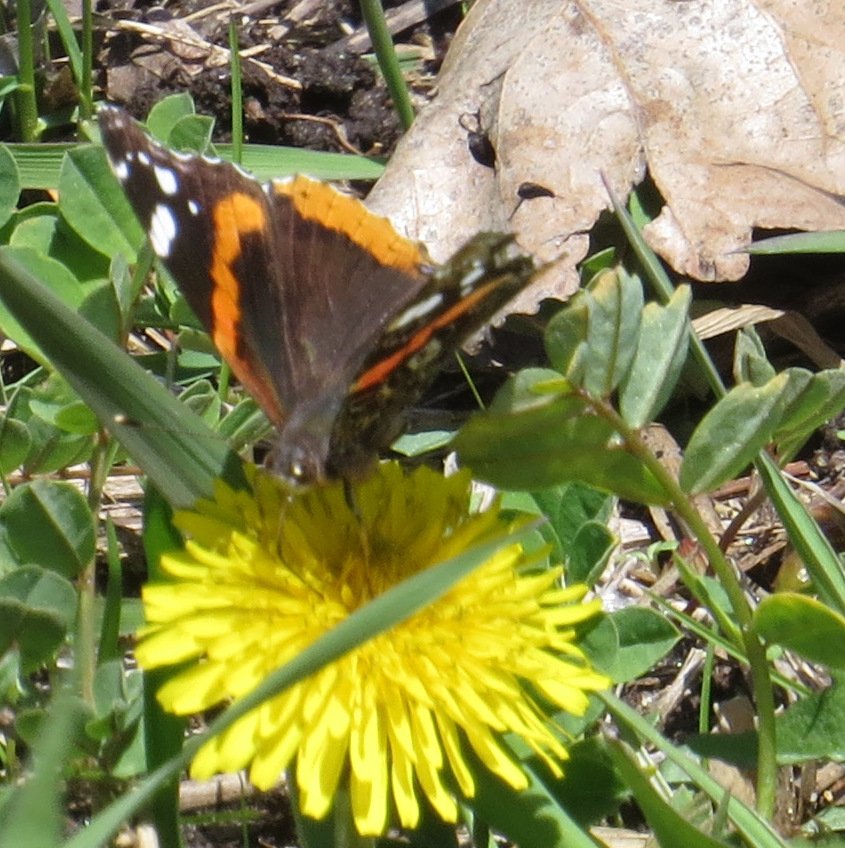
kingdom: Animalia
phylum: Arthropoda
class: Insecta
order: Lepidoptera
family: Nymphalidae
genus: Vanessa
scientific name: Vanessa atalanta
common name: Red Admiral
